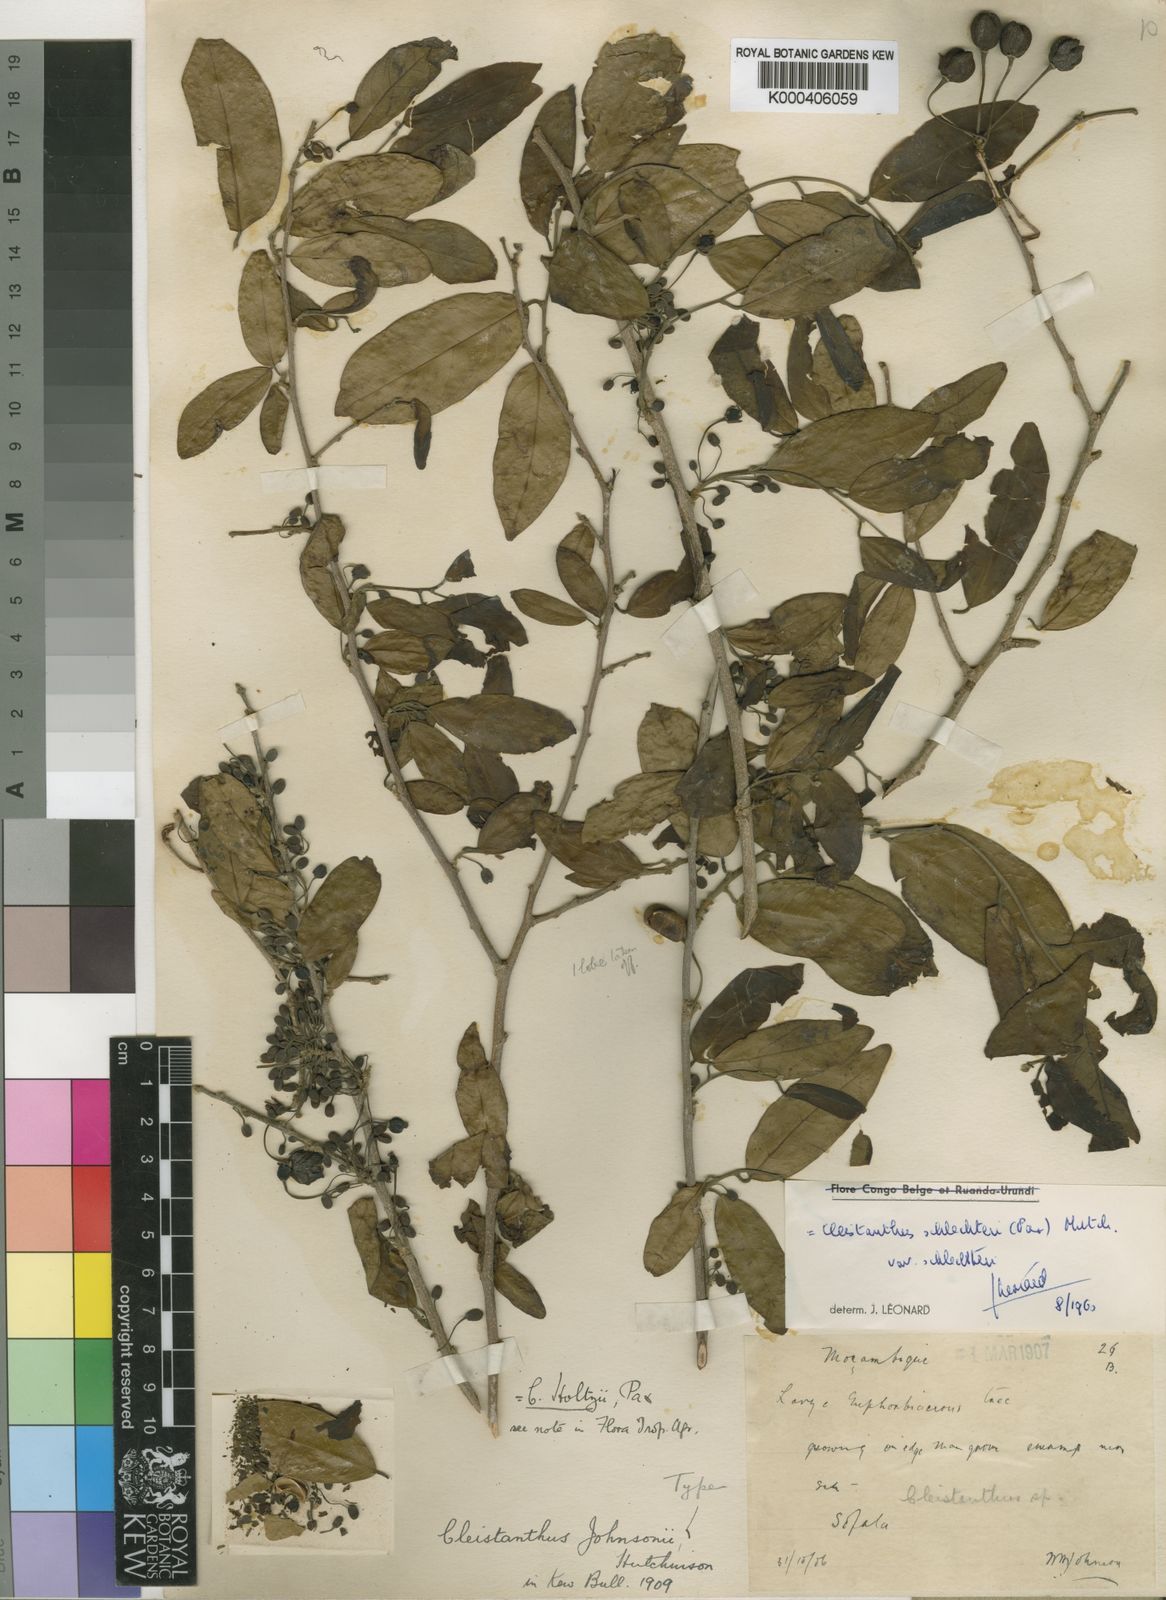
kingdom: Plantae
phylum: Tracheophyta
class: Magnoliopsida
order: Malpighiales
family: Phyllanthaceae
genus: Cleistanthus
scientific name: Cleistanthus schlechteri
